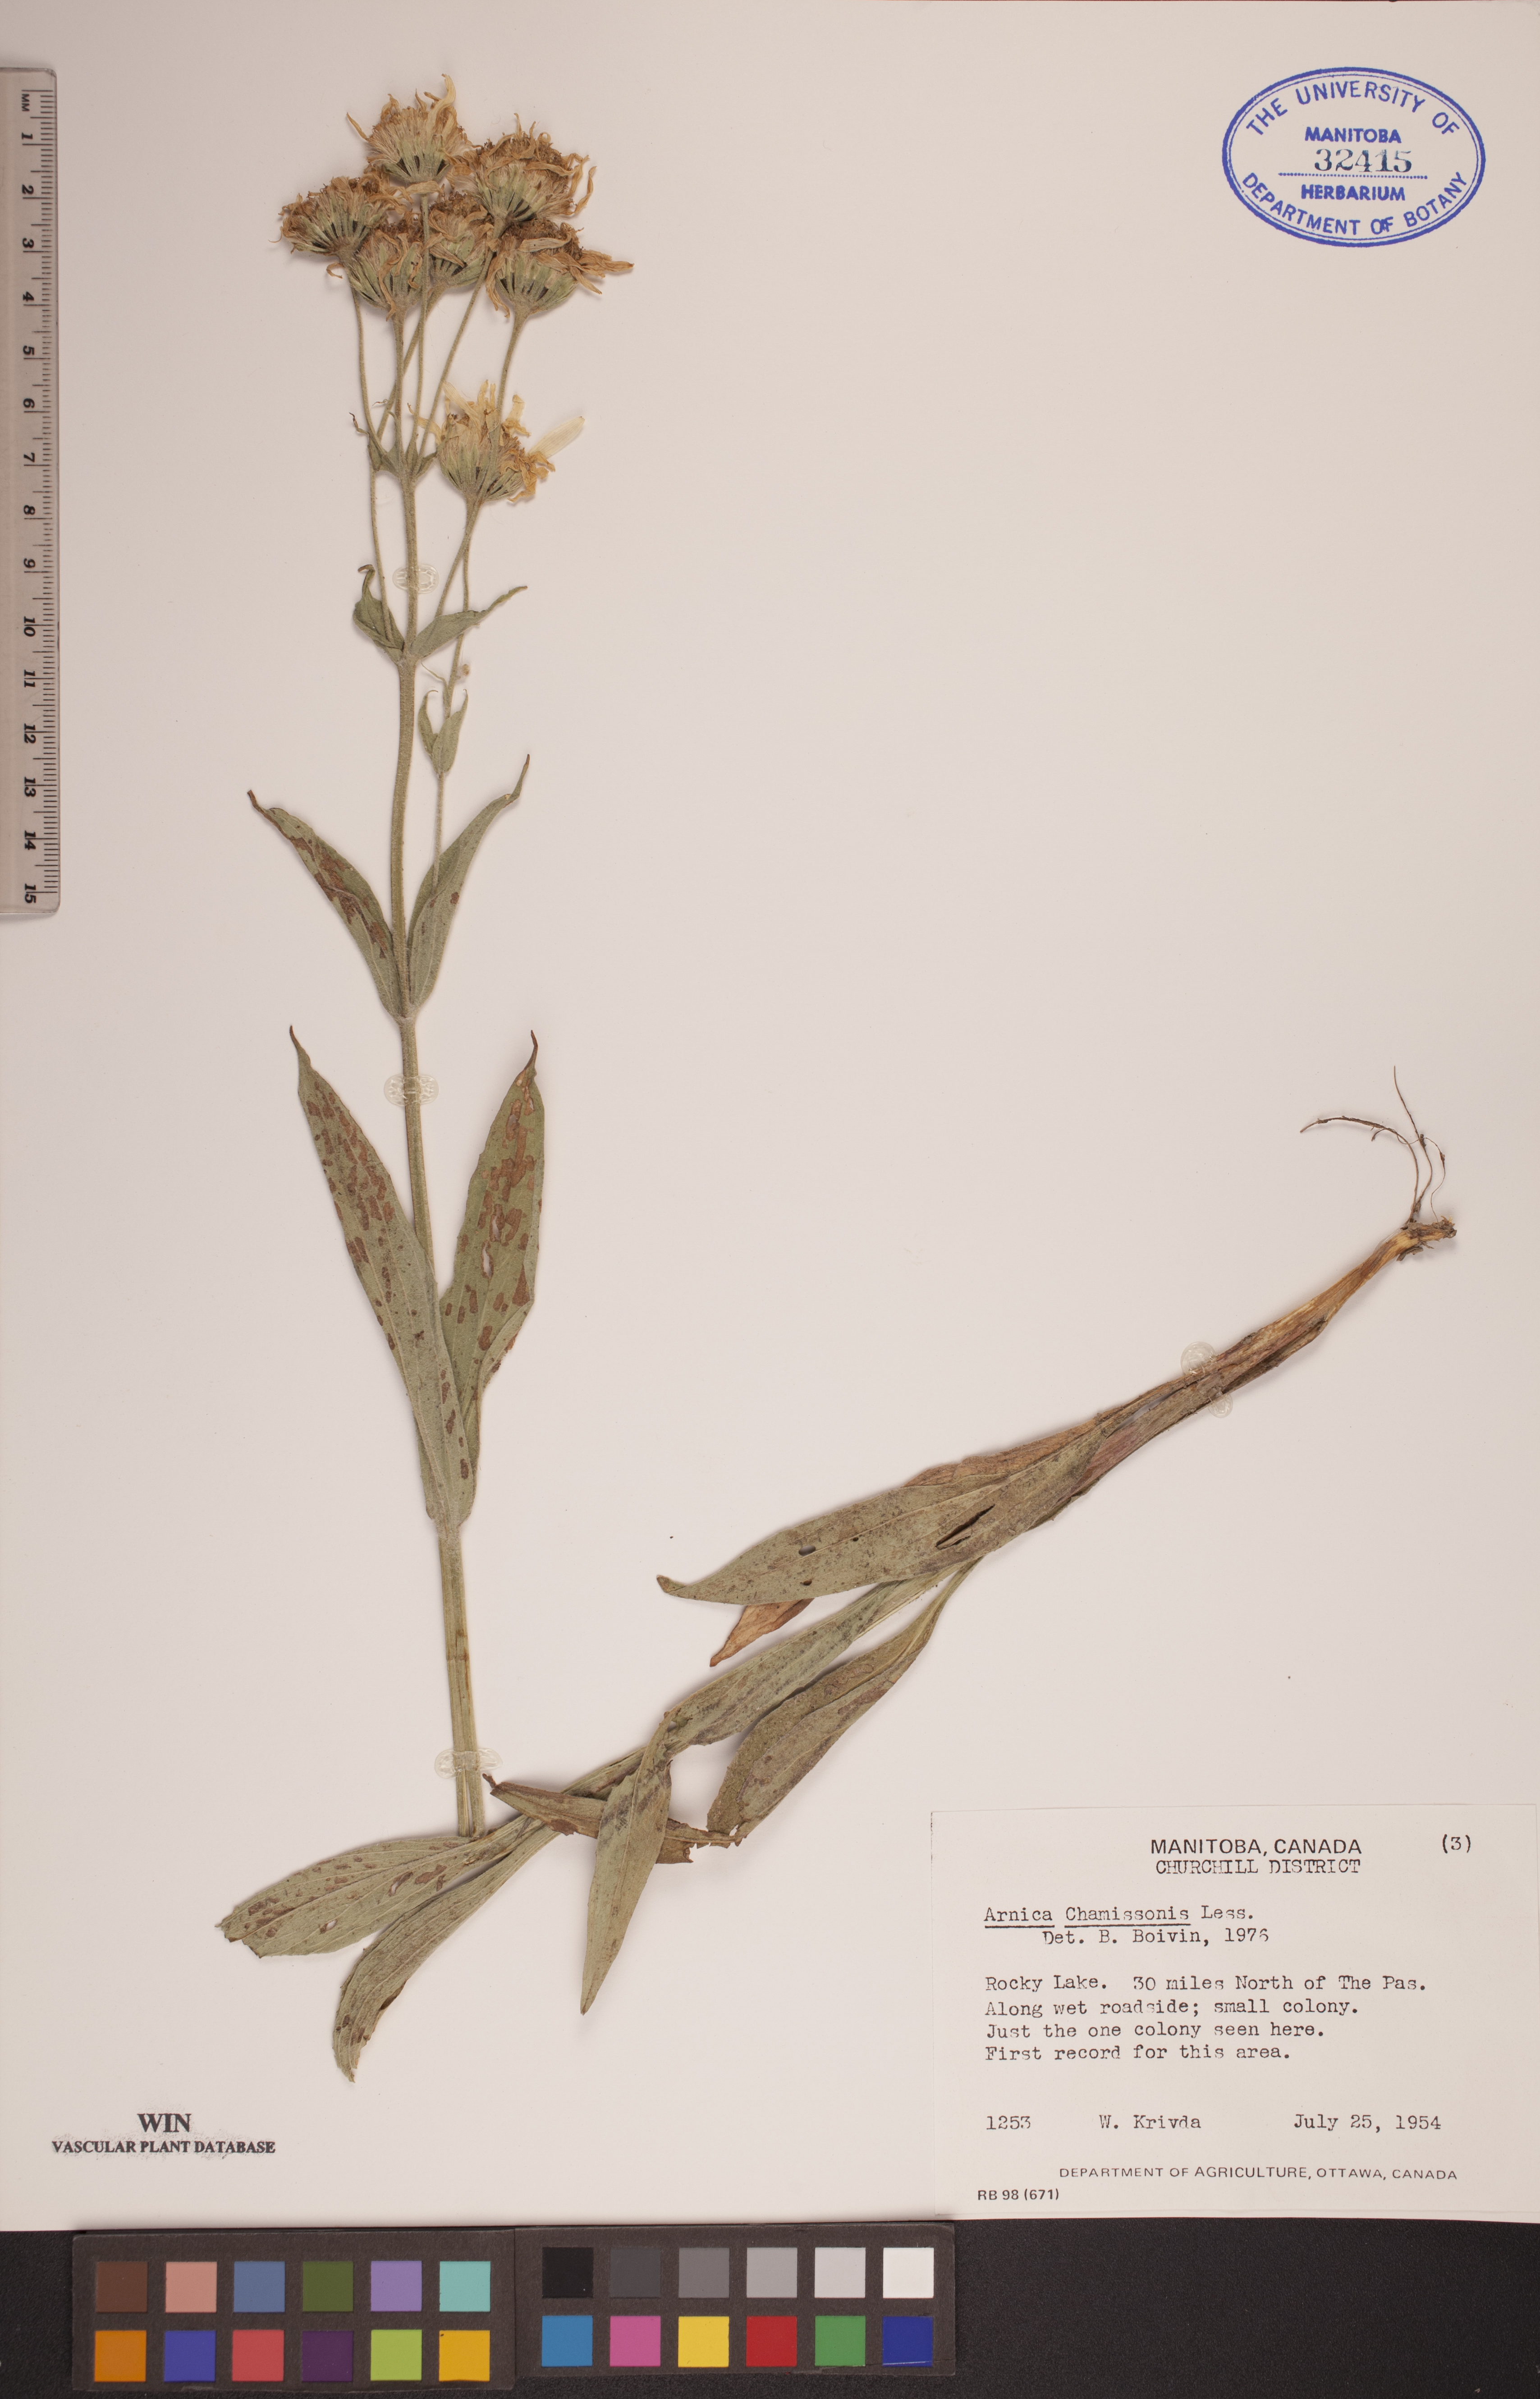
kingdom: Plantae
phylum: Tracheophyta
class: Magnoliopsida
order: Asterales
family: Asteraceae
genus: Arnica
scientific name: Arnica chamissonis
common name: Leafy arnica
